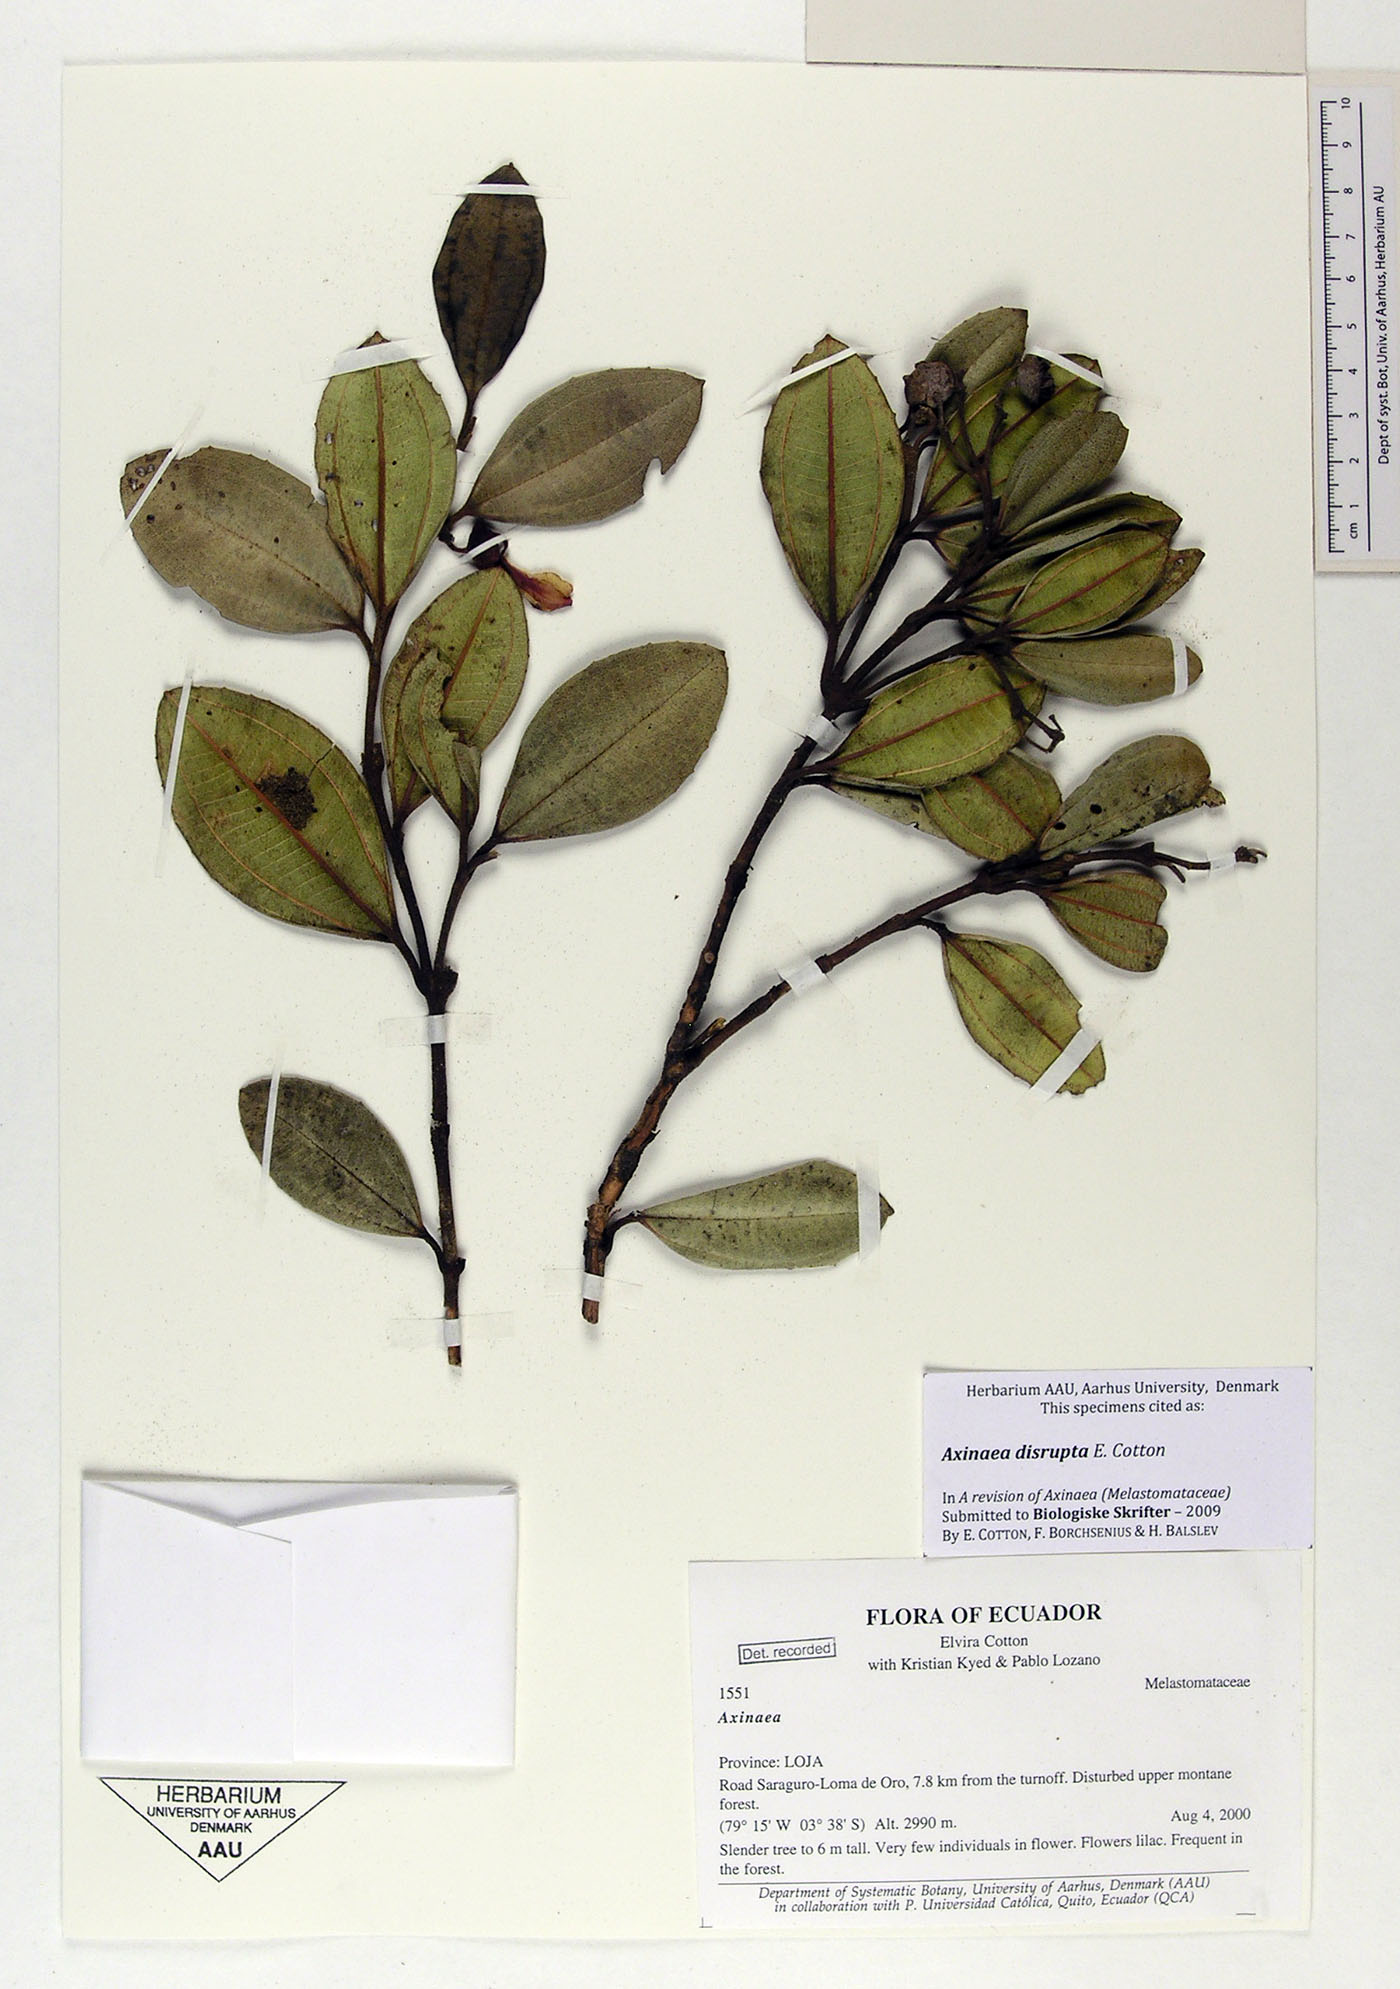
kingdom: Plantae
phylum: Tracheophyta
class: Magnoliopsida
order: Myrtales
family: Melastomataceae
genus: Axinaea
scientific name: Axinaea disrupta
